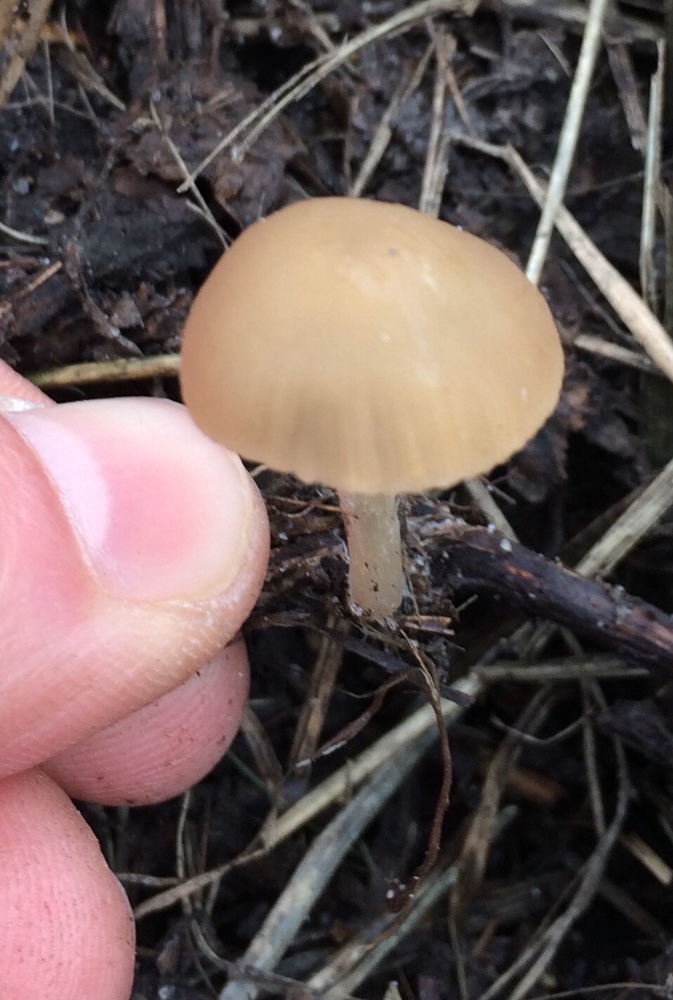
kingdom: Fungi
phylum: Basidiomycota
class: Agaricomycetes
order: Agaricales
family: Psathyrellaceae
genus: Psathyrella
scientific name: Psathyrella
